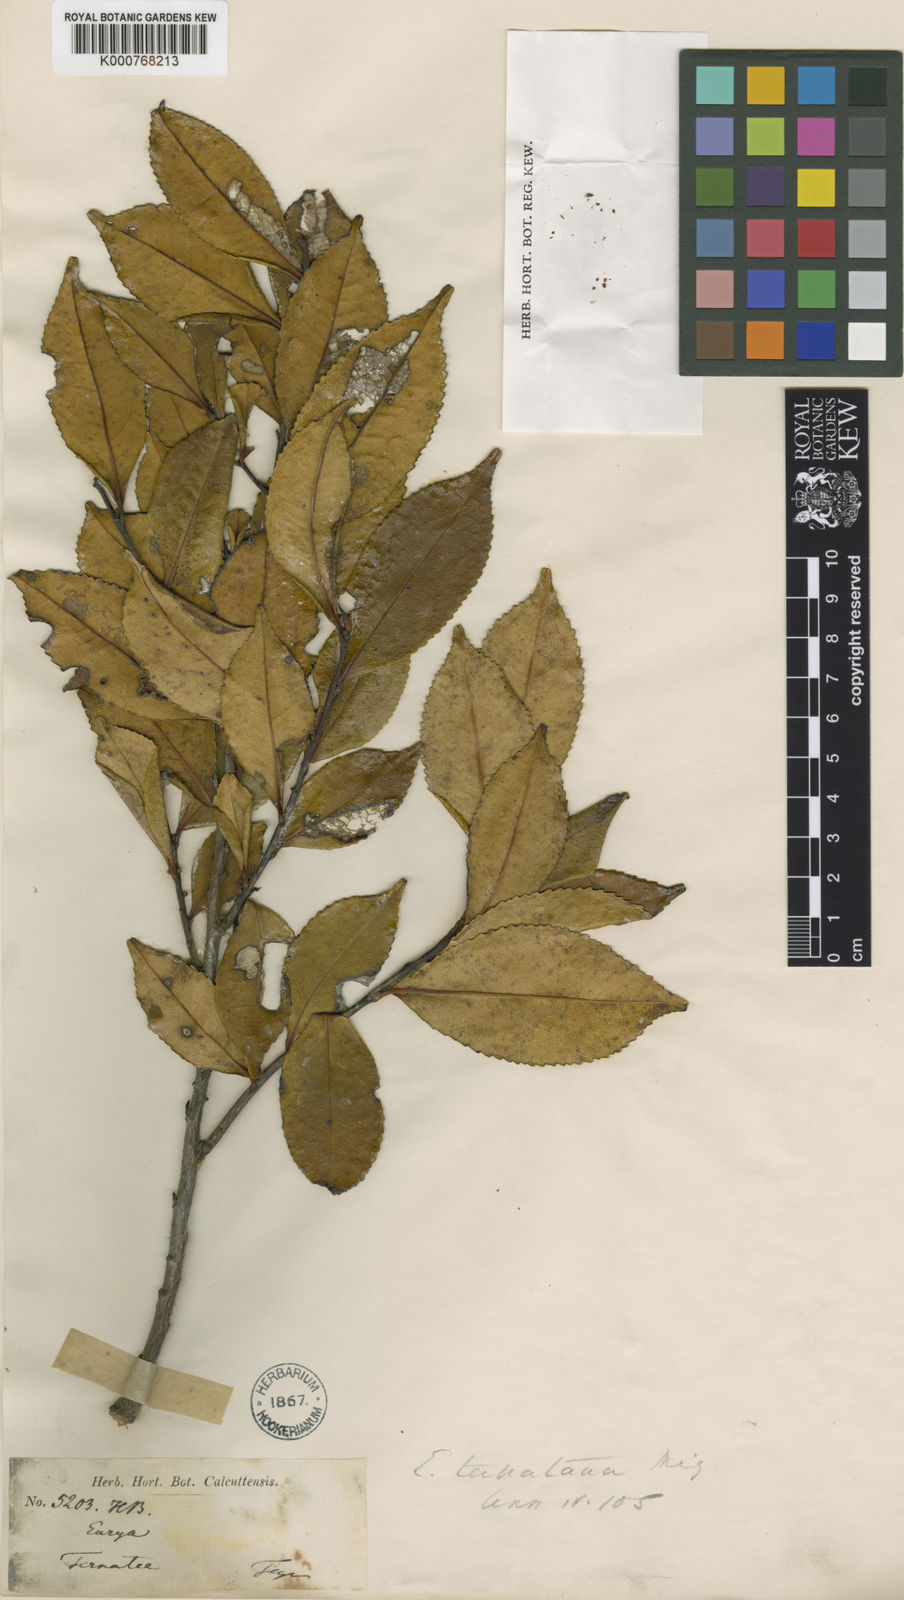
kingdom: Plantae
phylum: Tracheophyta
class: Magnoliopsida
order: Ericales
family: Pentaphylacaceae
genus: Eurya
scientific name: Eurya ternatana
